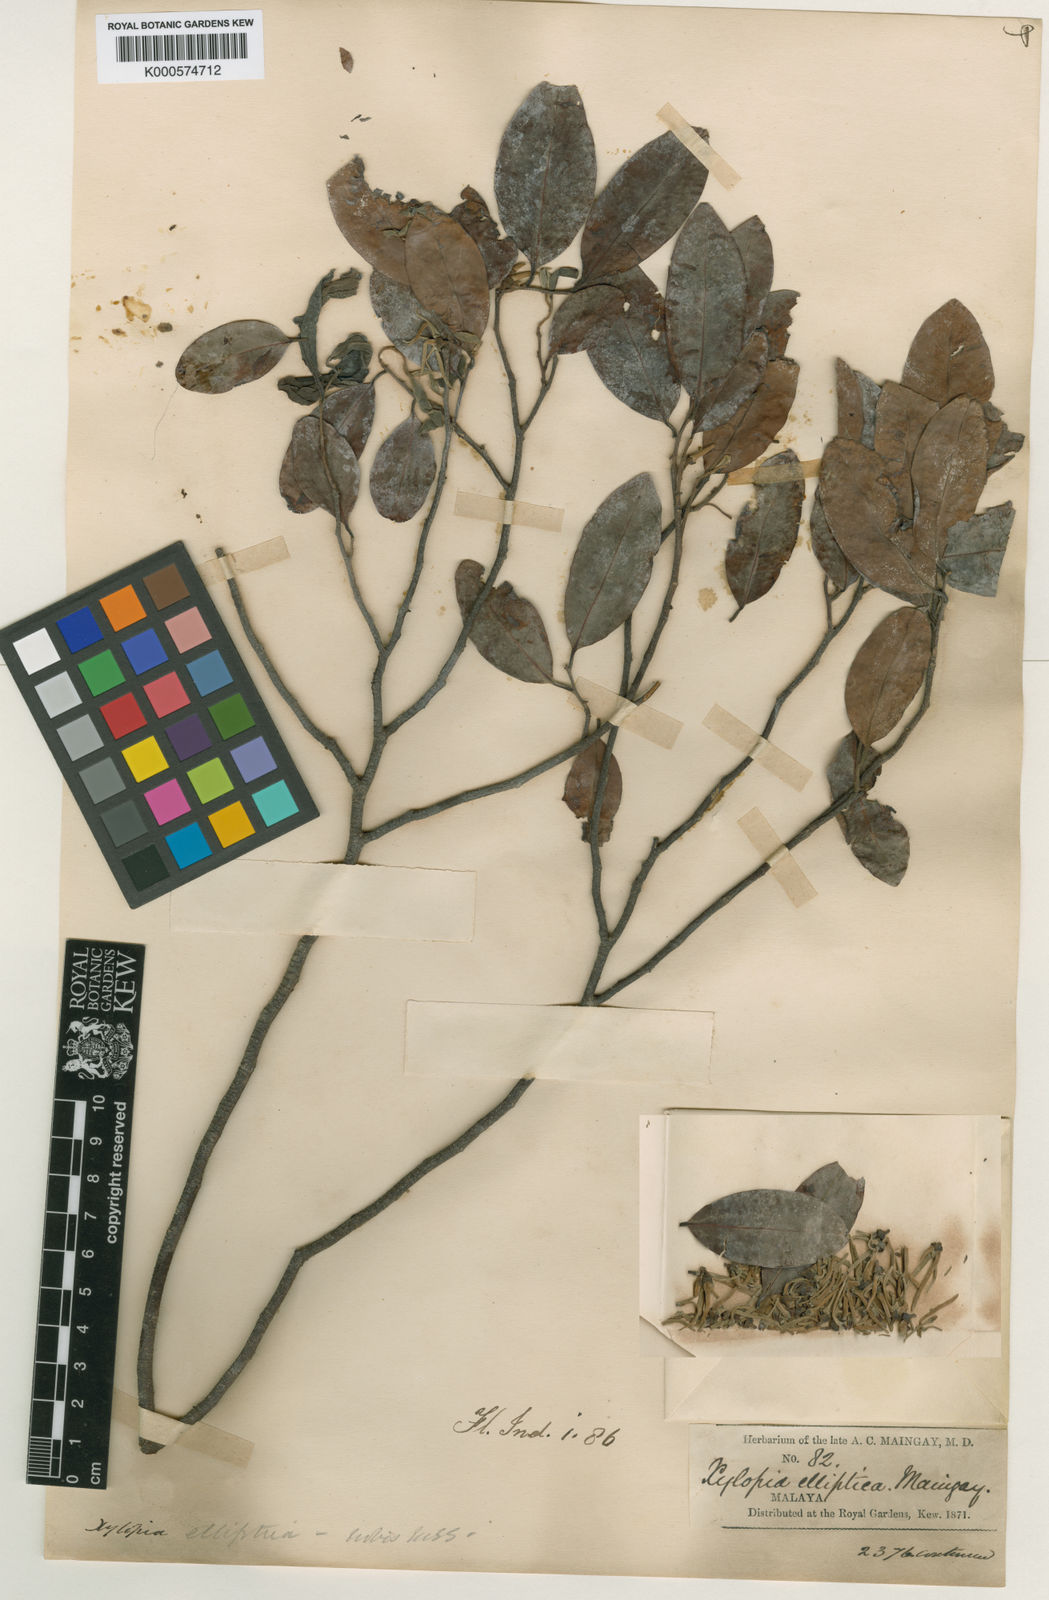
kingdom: Plantae
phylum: Tracheophyta
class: Magnoliopsida
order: Magnoliales
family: Annonaceae
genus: Xylopia
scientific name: Xylopia
